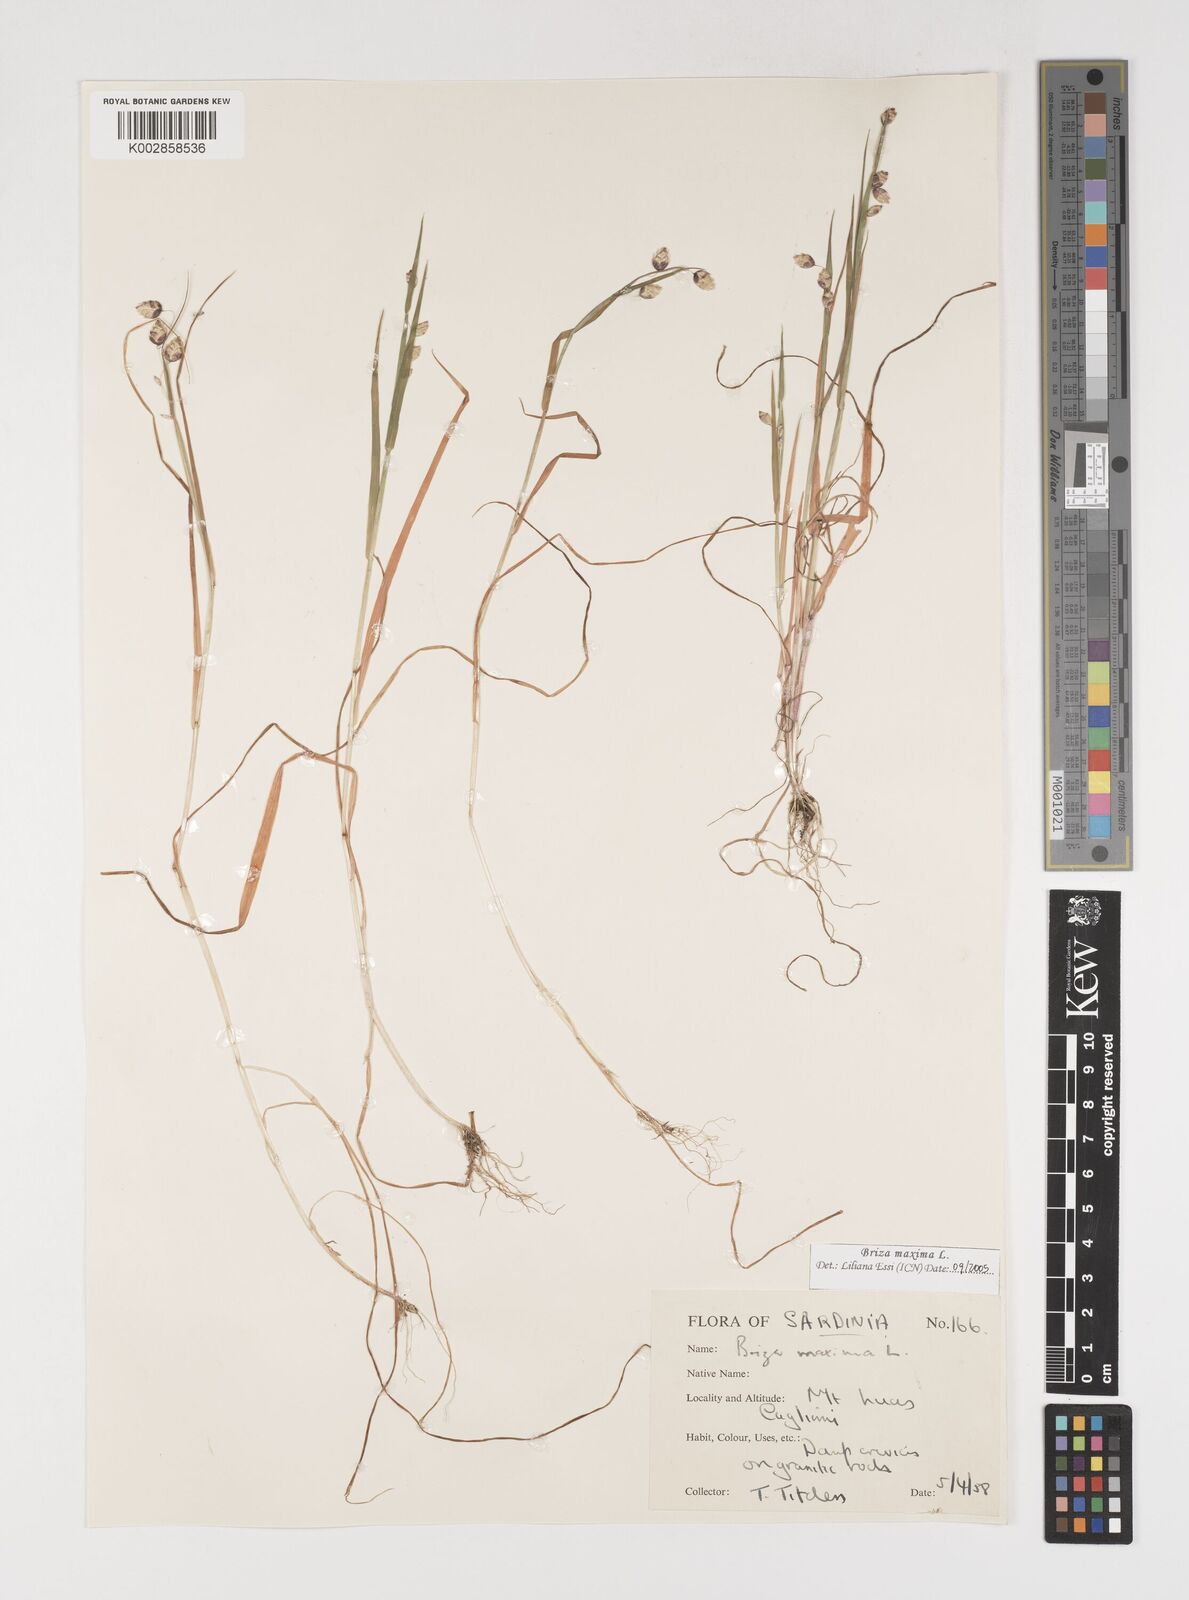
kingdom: Plantae
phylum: Tracheophyta
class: Liliopsida
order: Poales
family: Poaceae
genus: Briza
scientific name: Briza maxima
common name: Big quakinggrass
